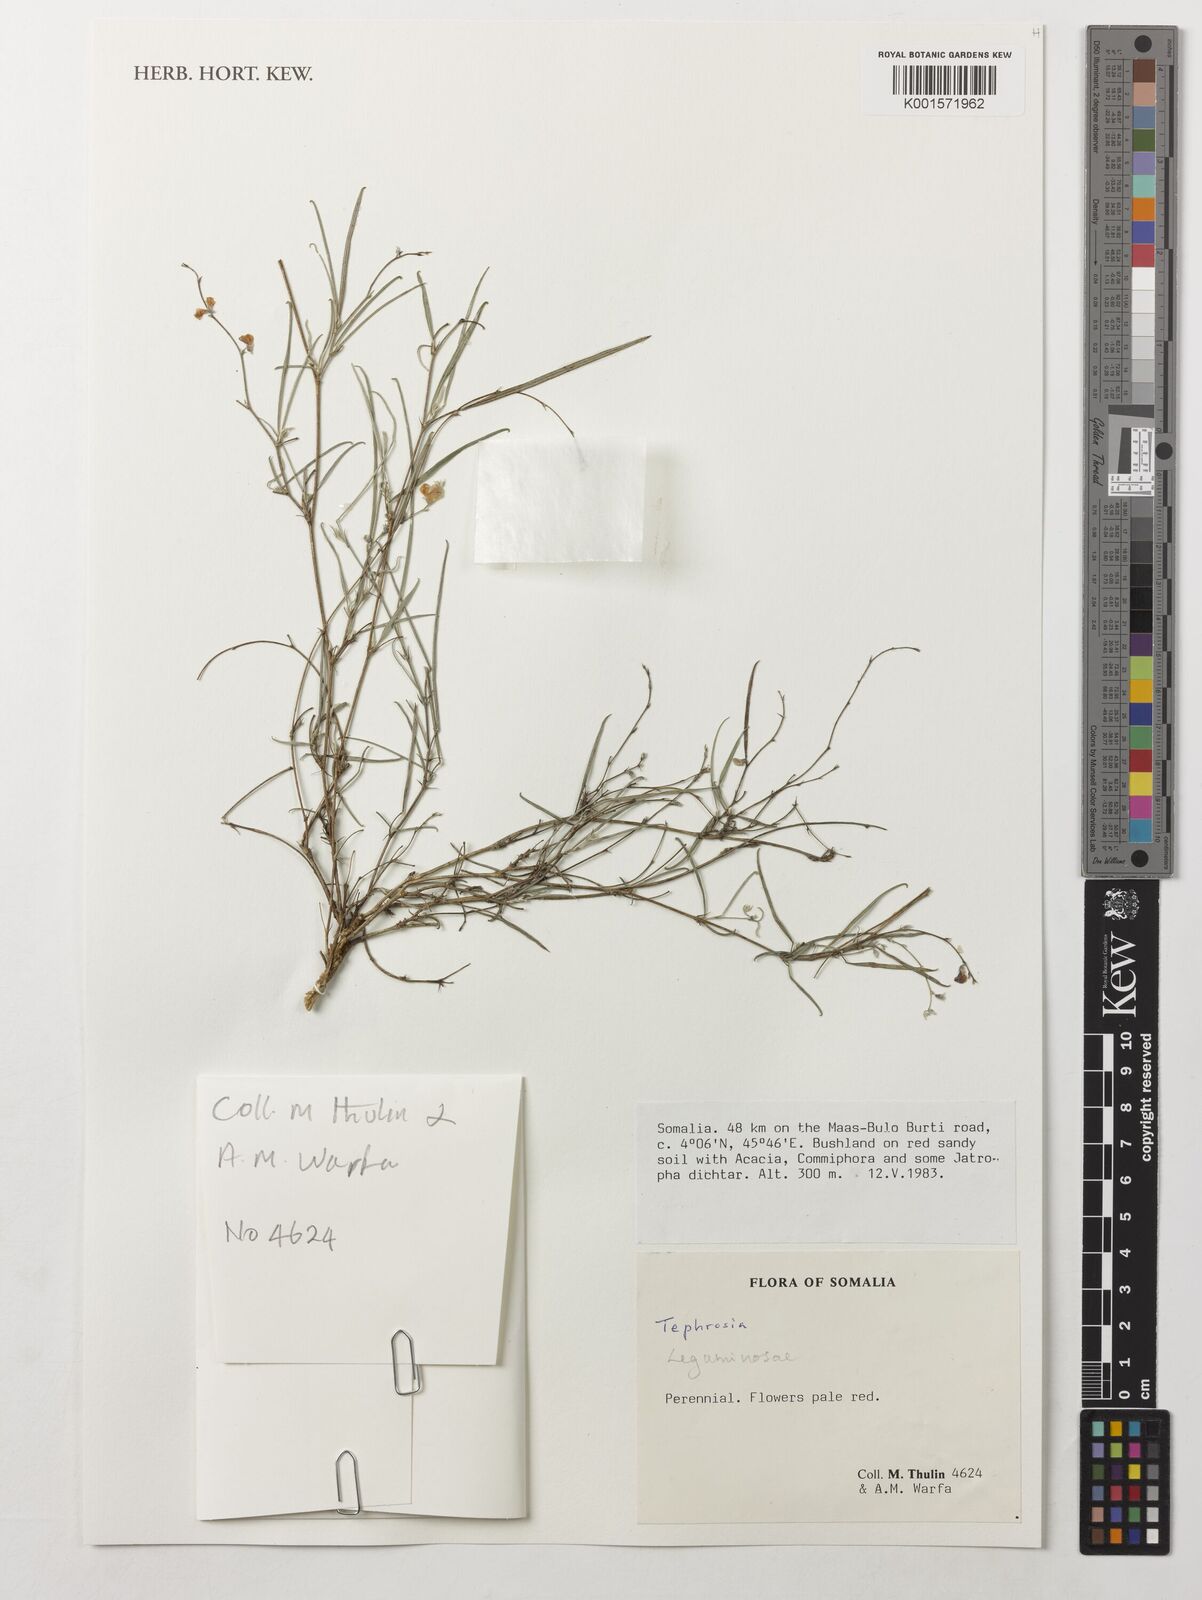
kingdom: Plantae
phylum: Tracheophyta
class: Magnoliopsida
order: Fabales
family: Fabaceae
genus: Tephrosia
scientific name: Tephrosia
